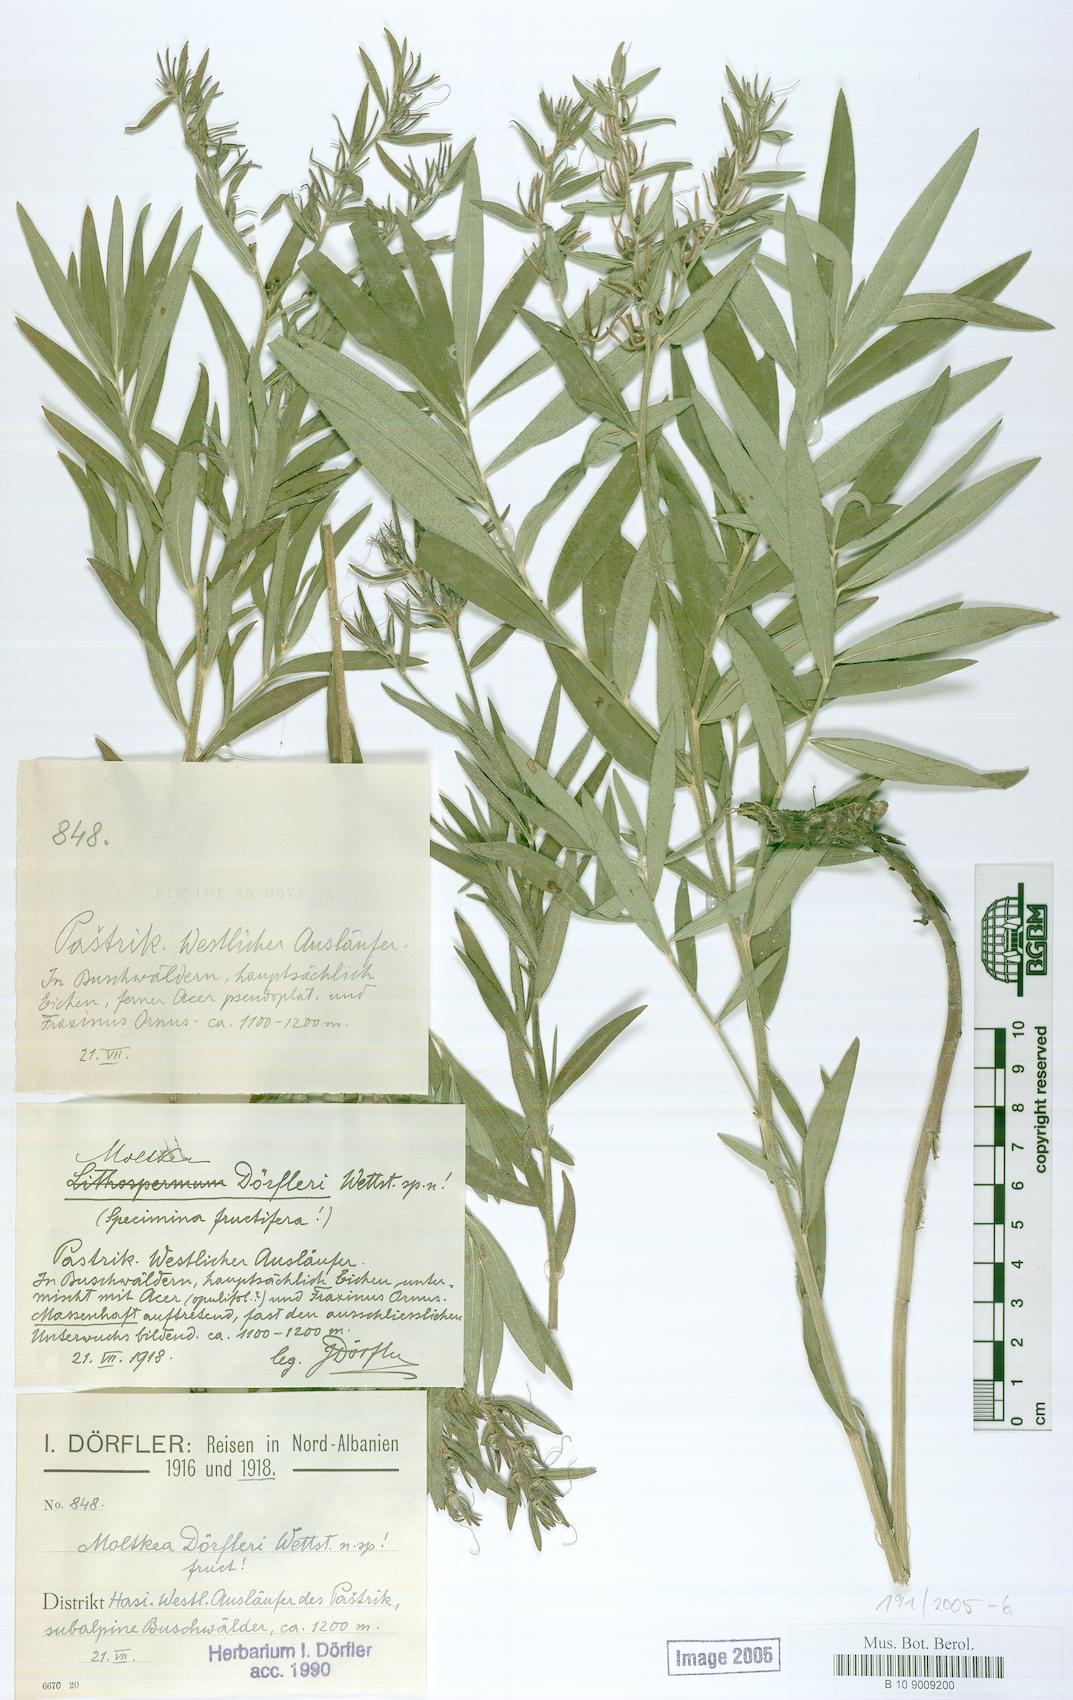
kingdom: Plantae
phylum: Tracheophyta
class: Magnoliopsida
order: Boraginales
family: Boraginaceae
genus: Paramoltkia
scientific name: Paramoltkia doerfleri
